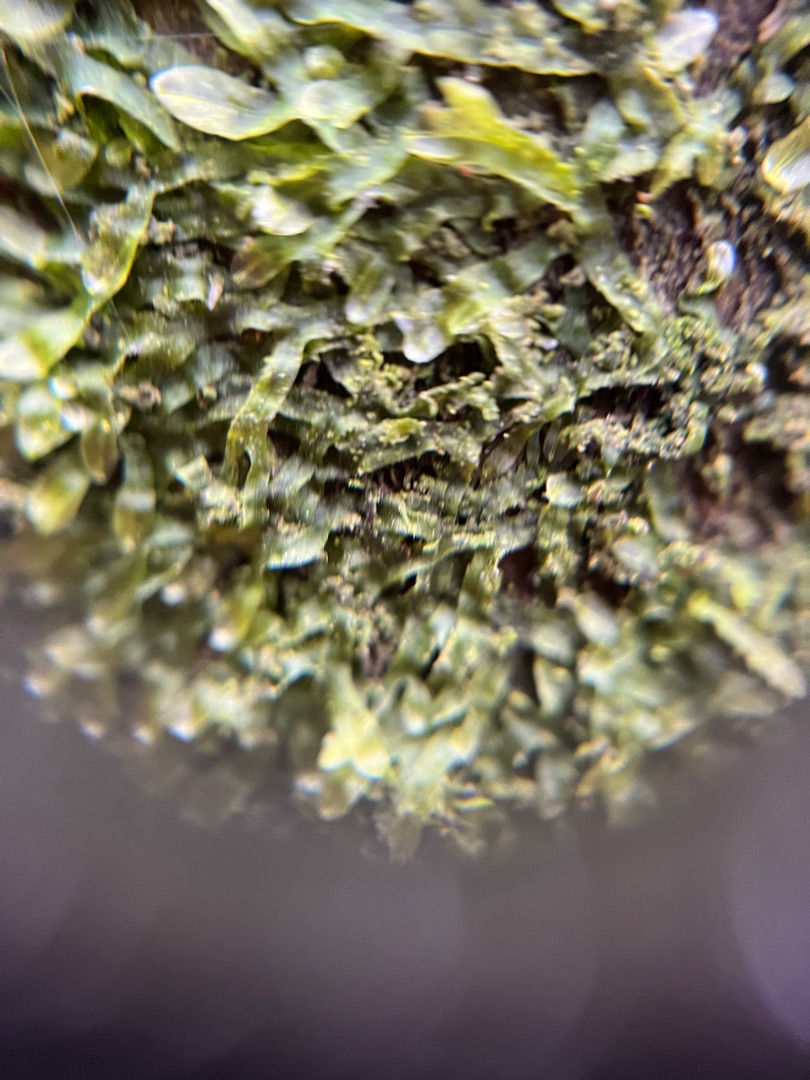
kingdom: Plantae
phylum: Marchantiophyta
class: Jungermanniopsida
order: Metzgeriales
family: Metzgeriaceae
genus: Metzgeria
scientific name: Metzgeria furcata
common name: Almindelig gaffelløv
